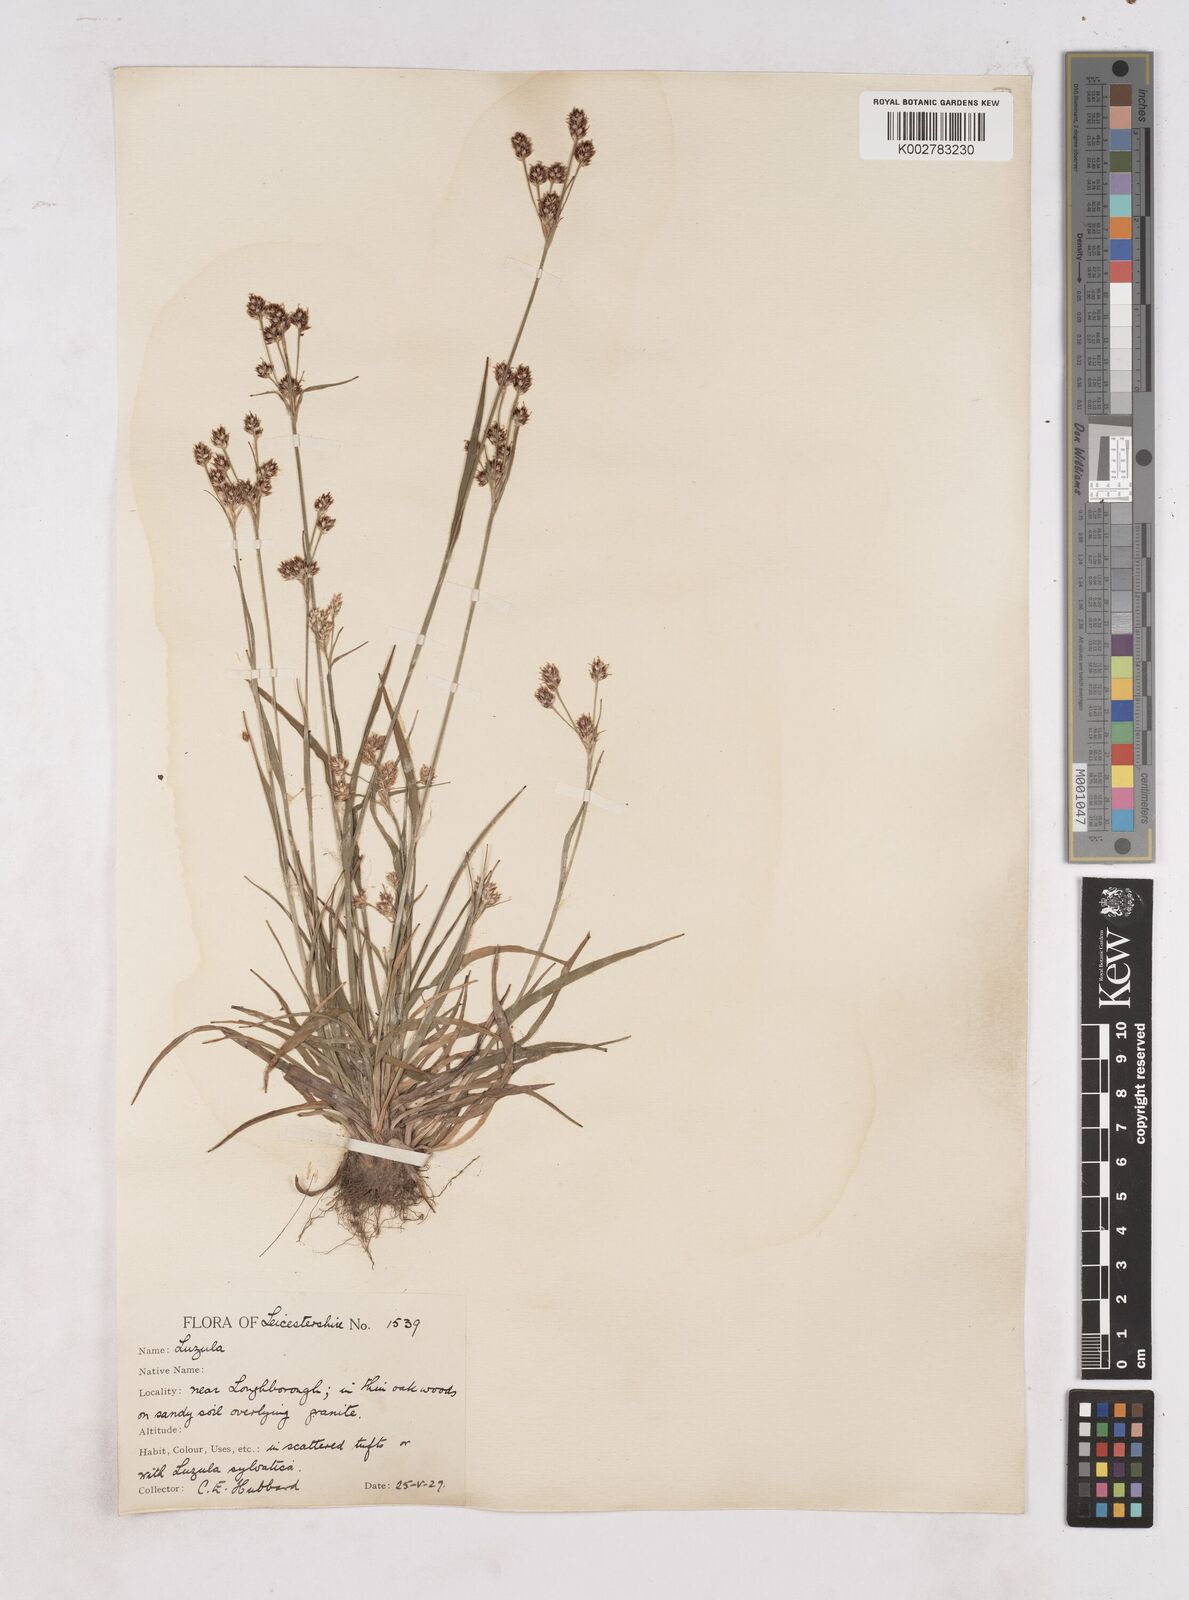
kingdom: Plantae
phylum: Tracheophyta
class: Liliopsida
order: Poales
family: Juncaceae
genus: Luzula
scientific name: Luzula multiflora
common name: Heath wood-rush
